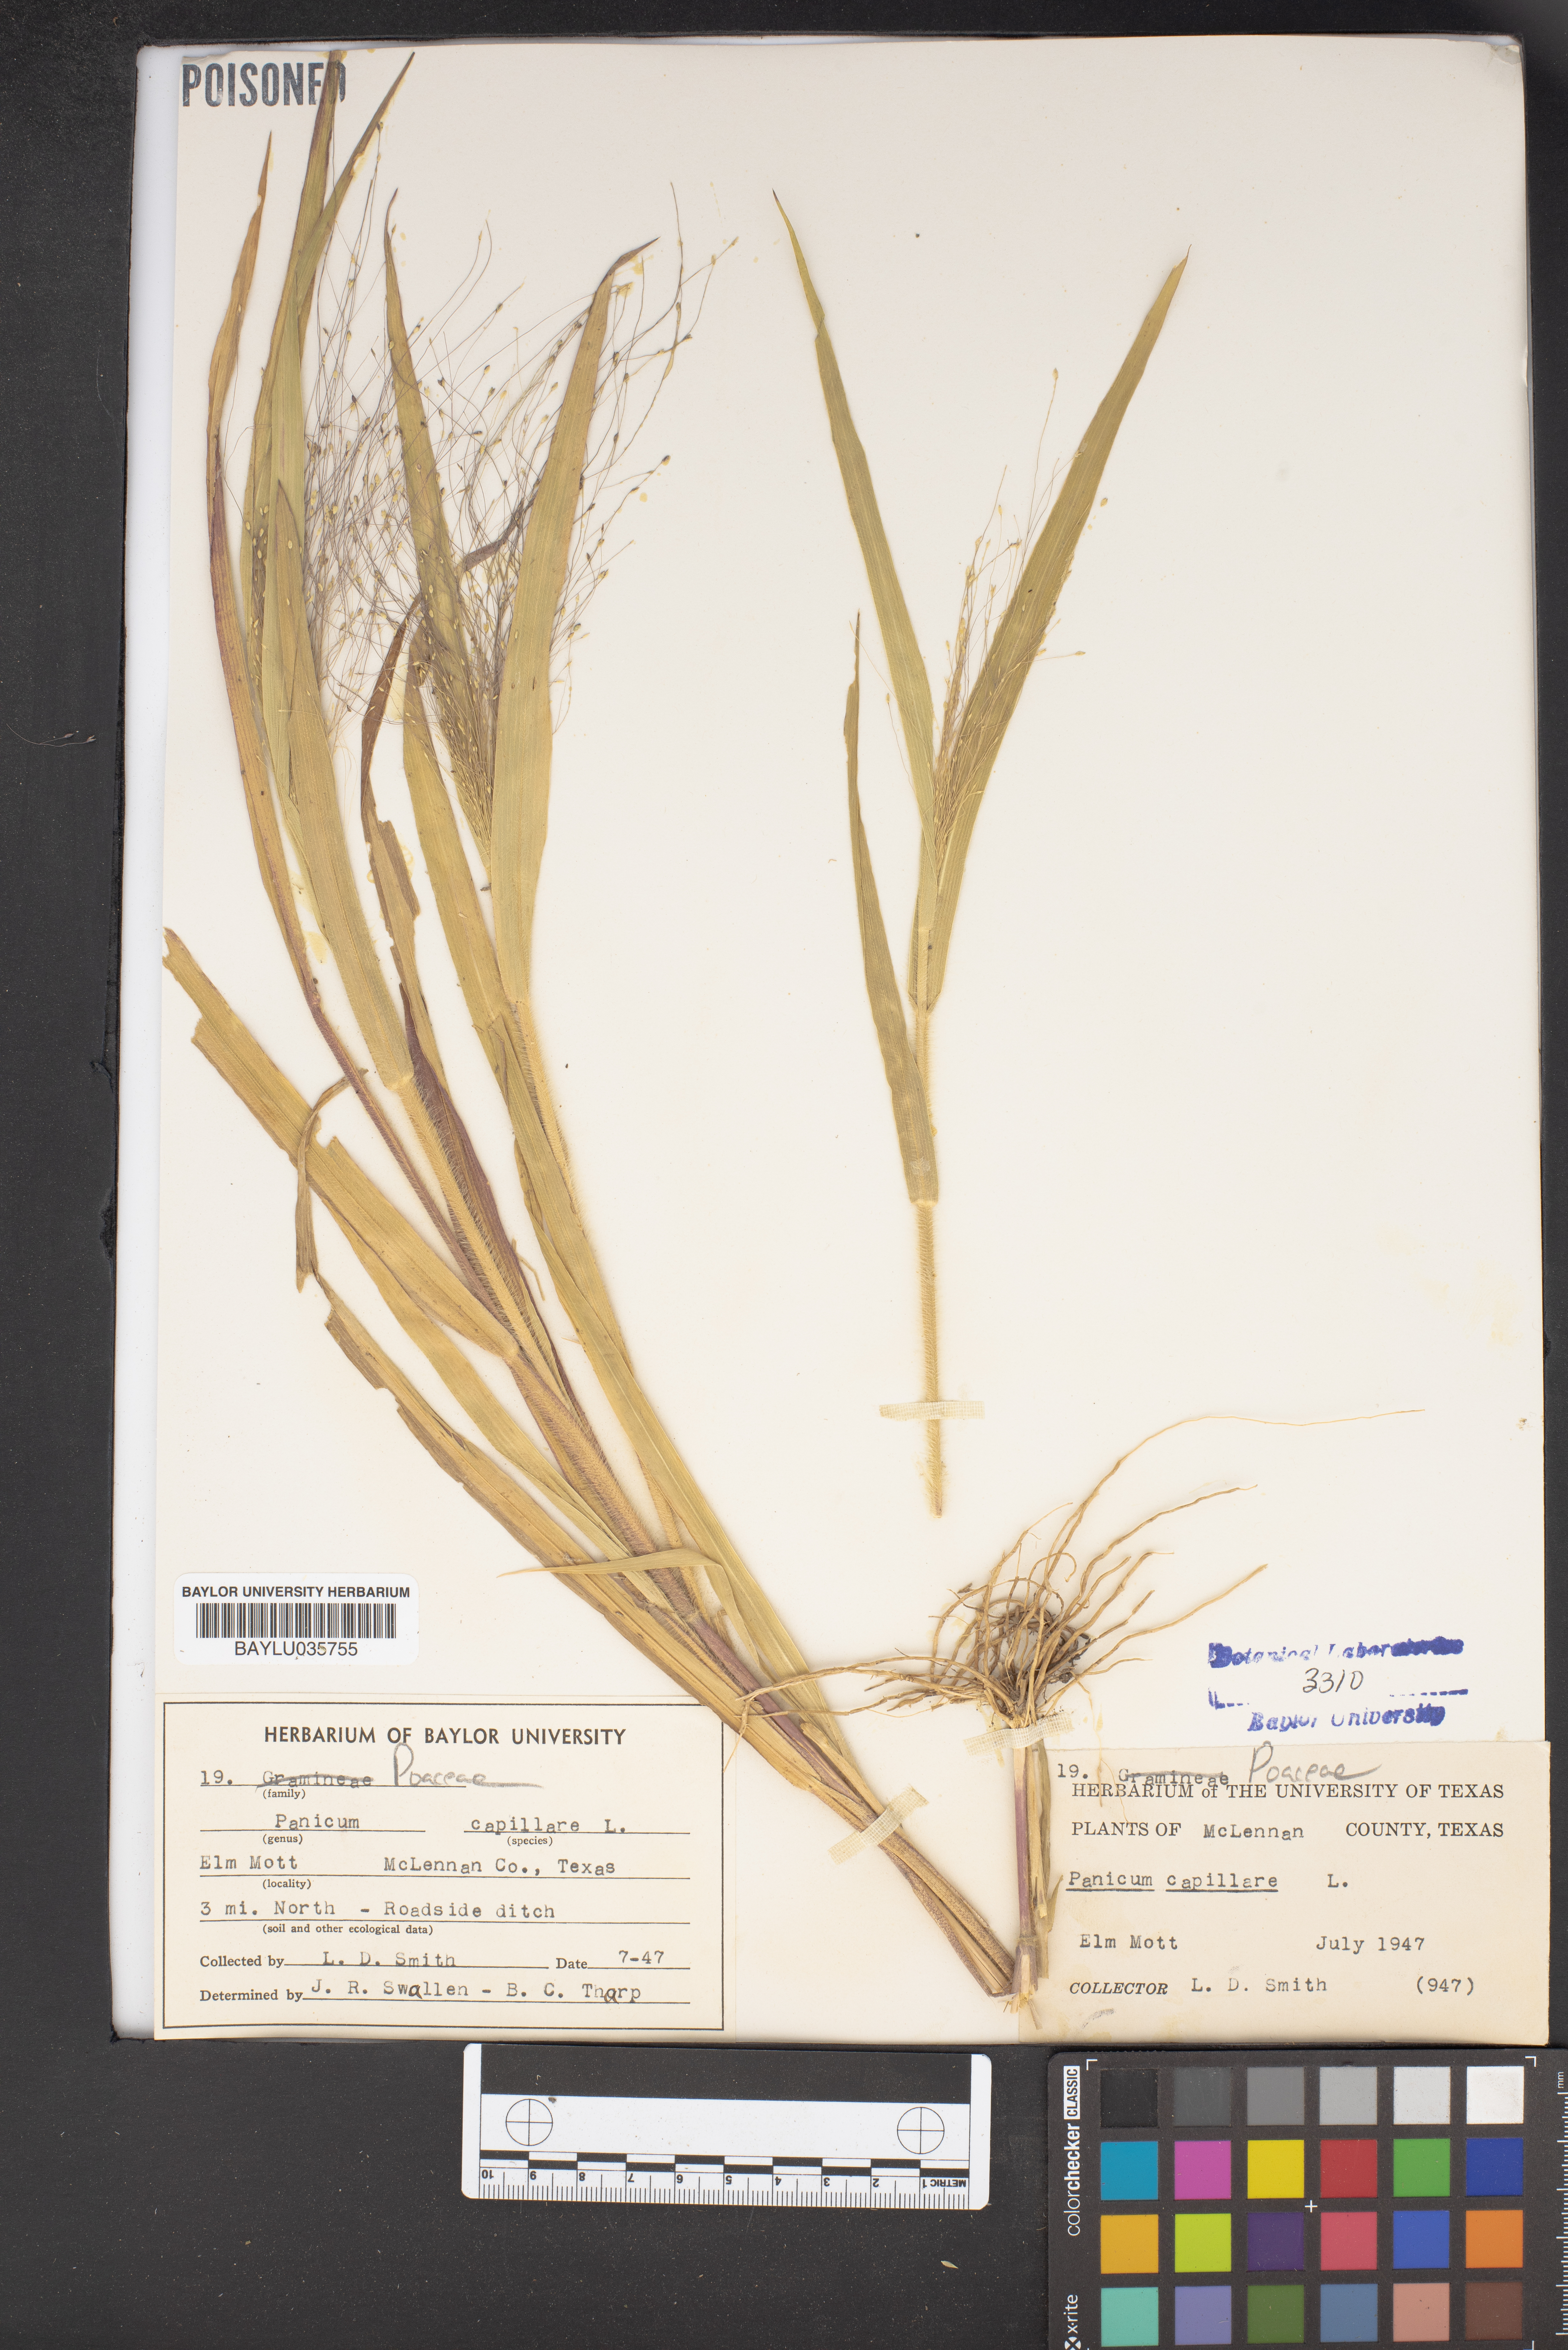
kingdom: Plantae
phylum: Tracheophyta
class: Liliopsida
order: Poales
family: Poaceae
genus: Panicum
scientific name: Panicum capillare
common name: Witch-grass
